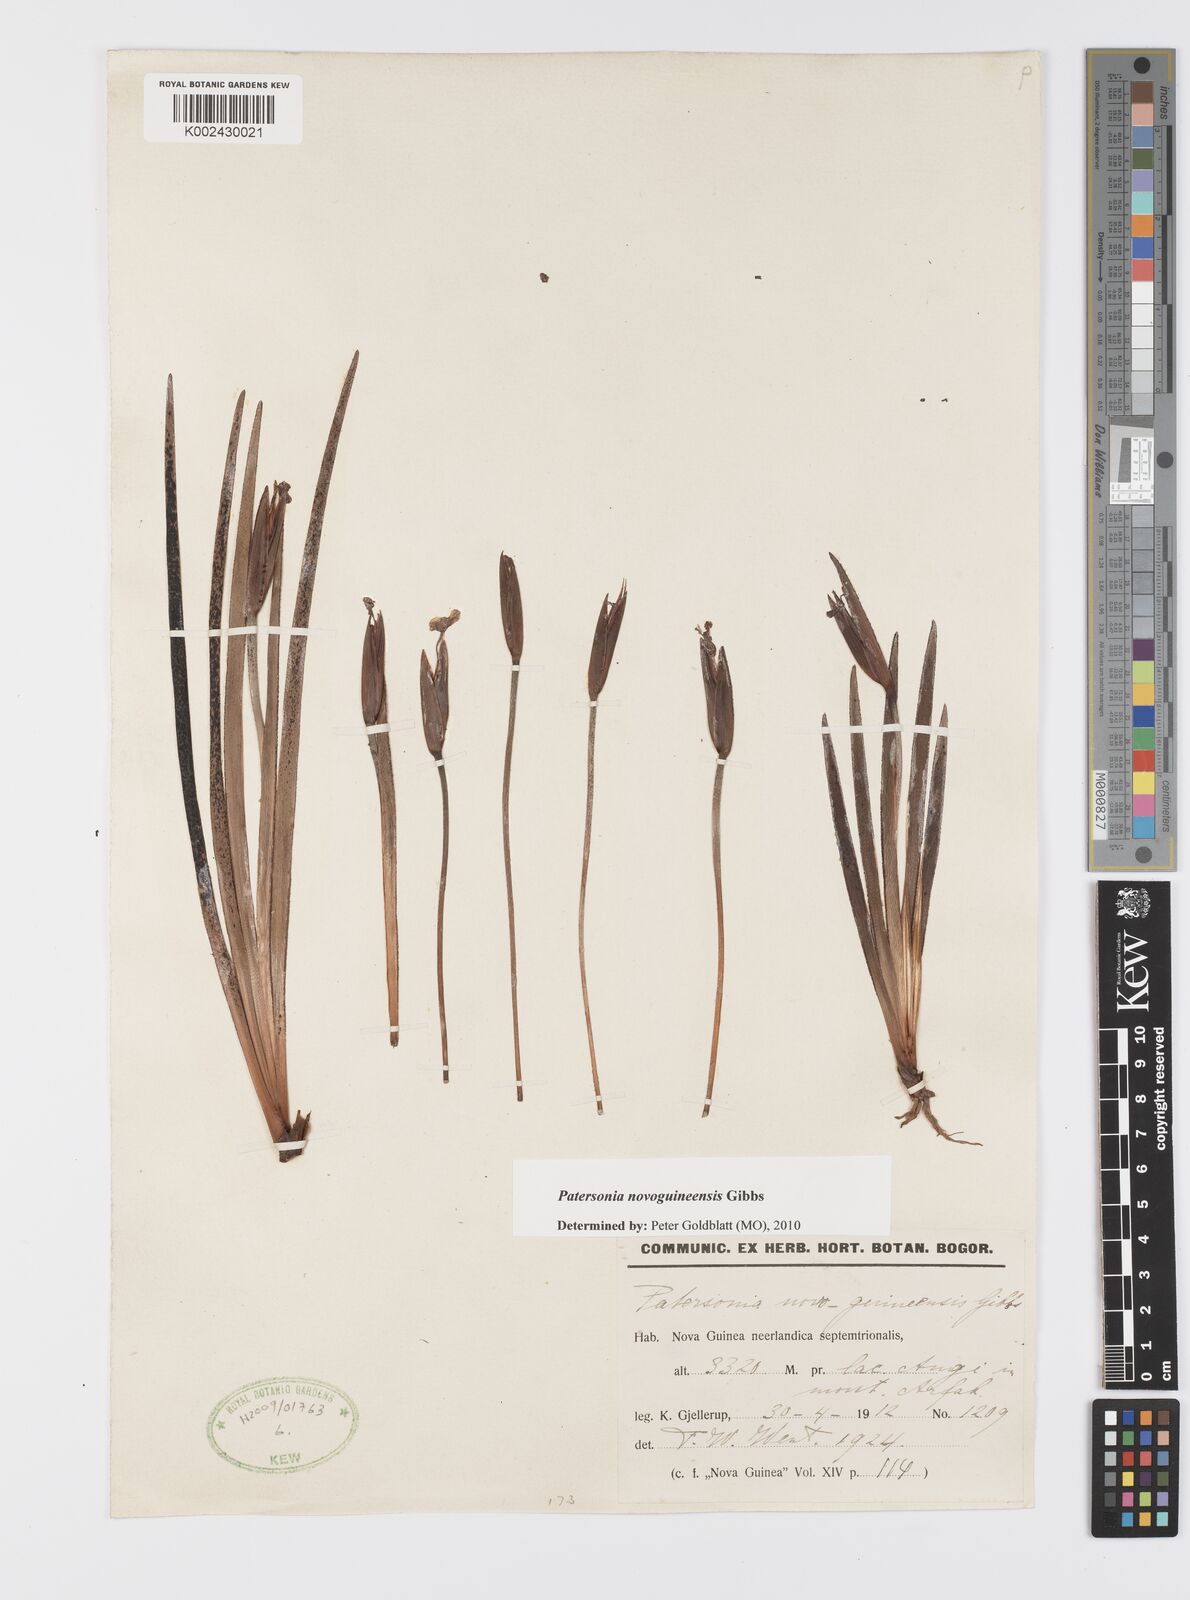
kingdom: Plantae
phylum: Tracheophyta
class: Liliopsida
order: Asparagales
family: Iridaceae
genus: Patersonia
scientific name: Patersonia novoguineensis
